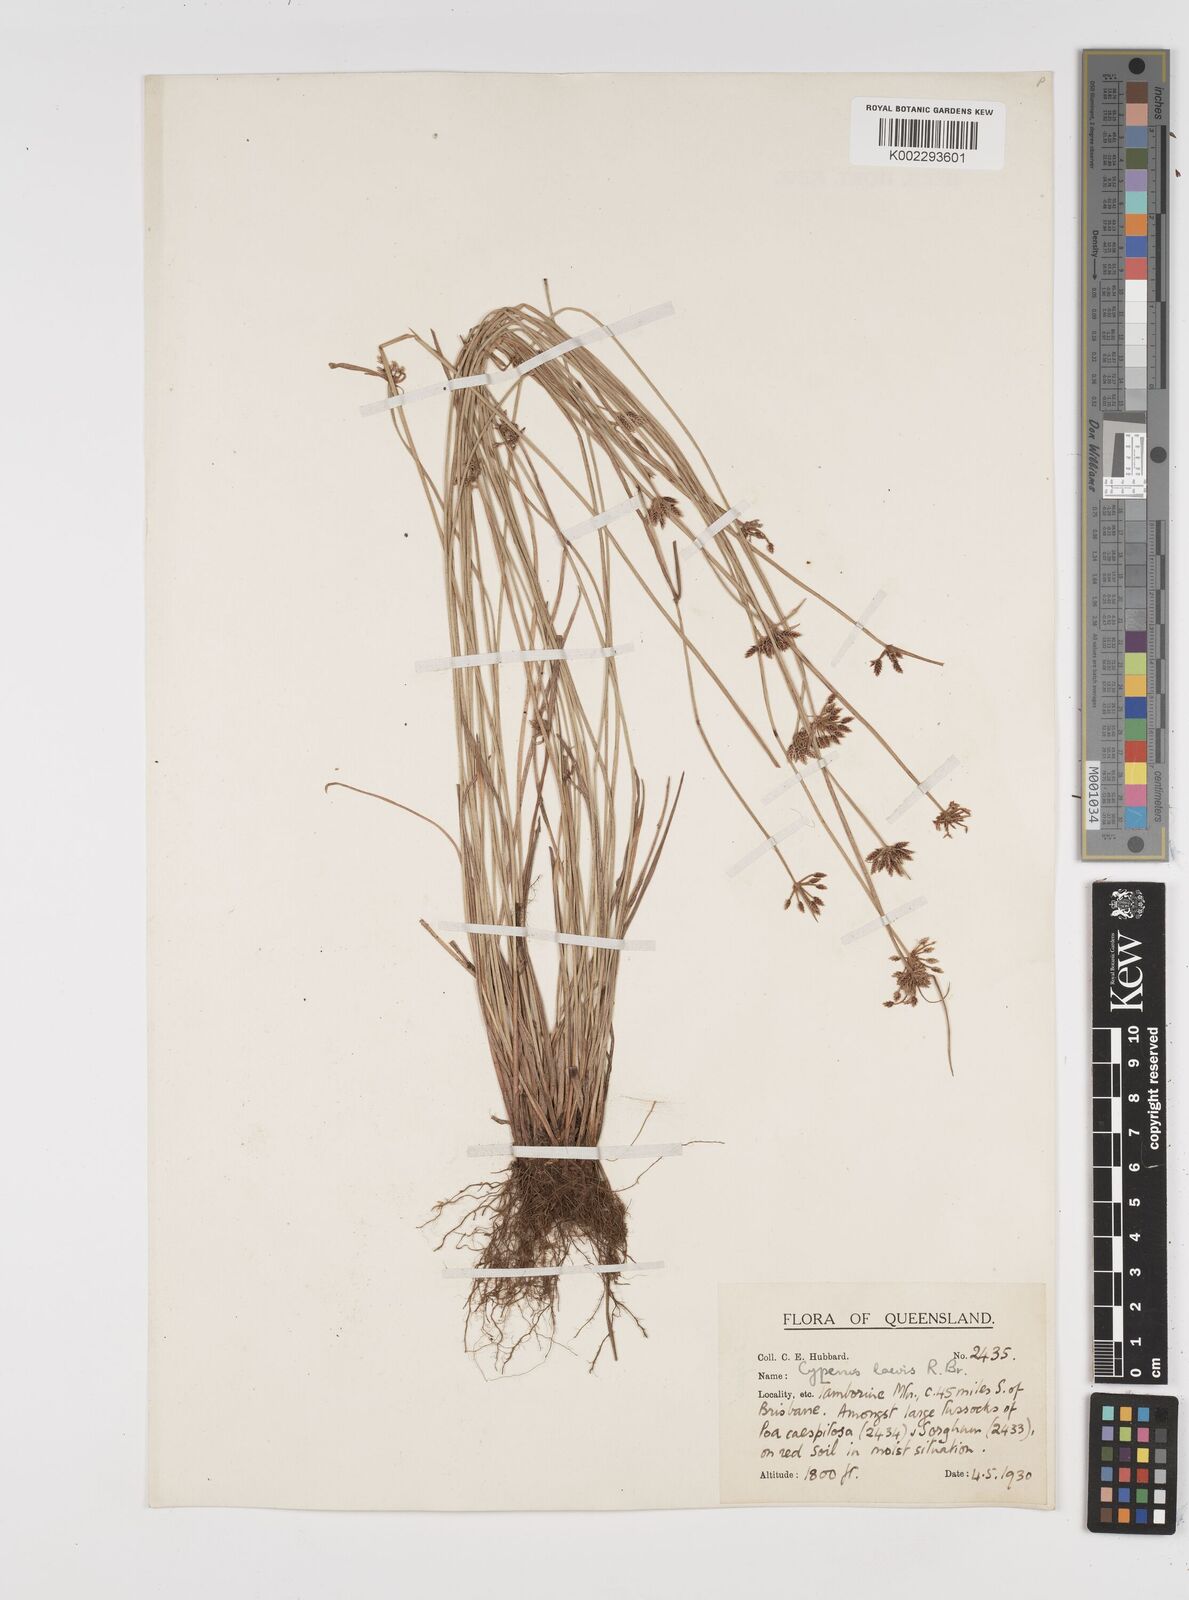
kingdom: Plantae
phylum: Tracheophyta
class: Liliopsida
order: Poales
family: Cyperaceae
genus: Cyperus
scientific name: Cyperus laevis
